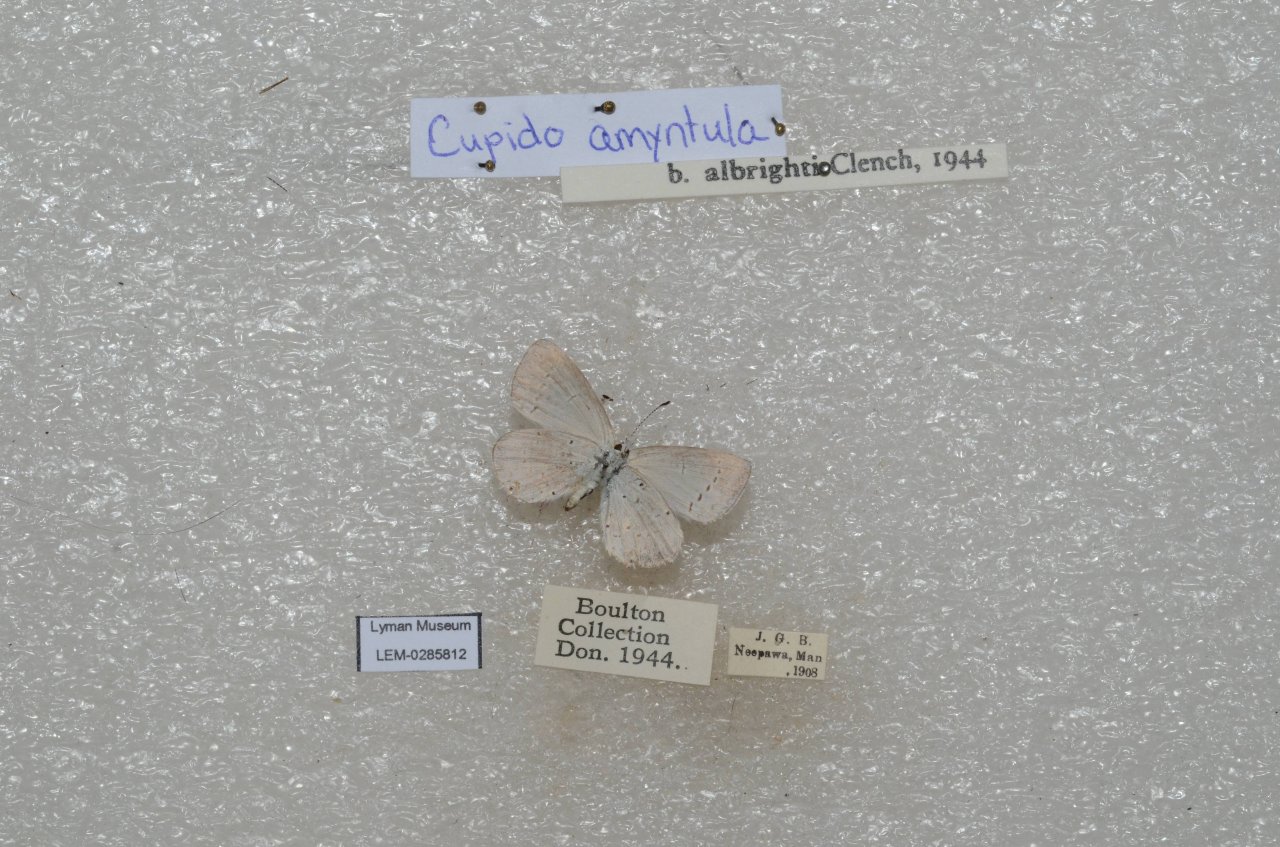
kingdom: Animalia
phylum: Arthropoda
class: Insecta
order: Lepidoptera
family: Lycaenidae
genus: Elkalyce
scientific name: Elkalyce amyntula
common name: Western Tailed-Blue
